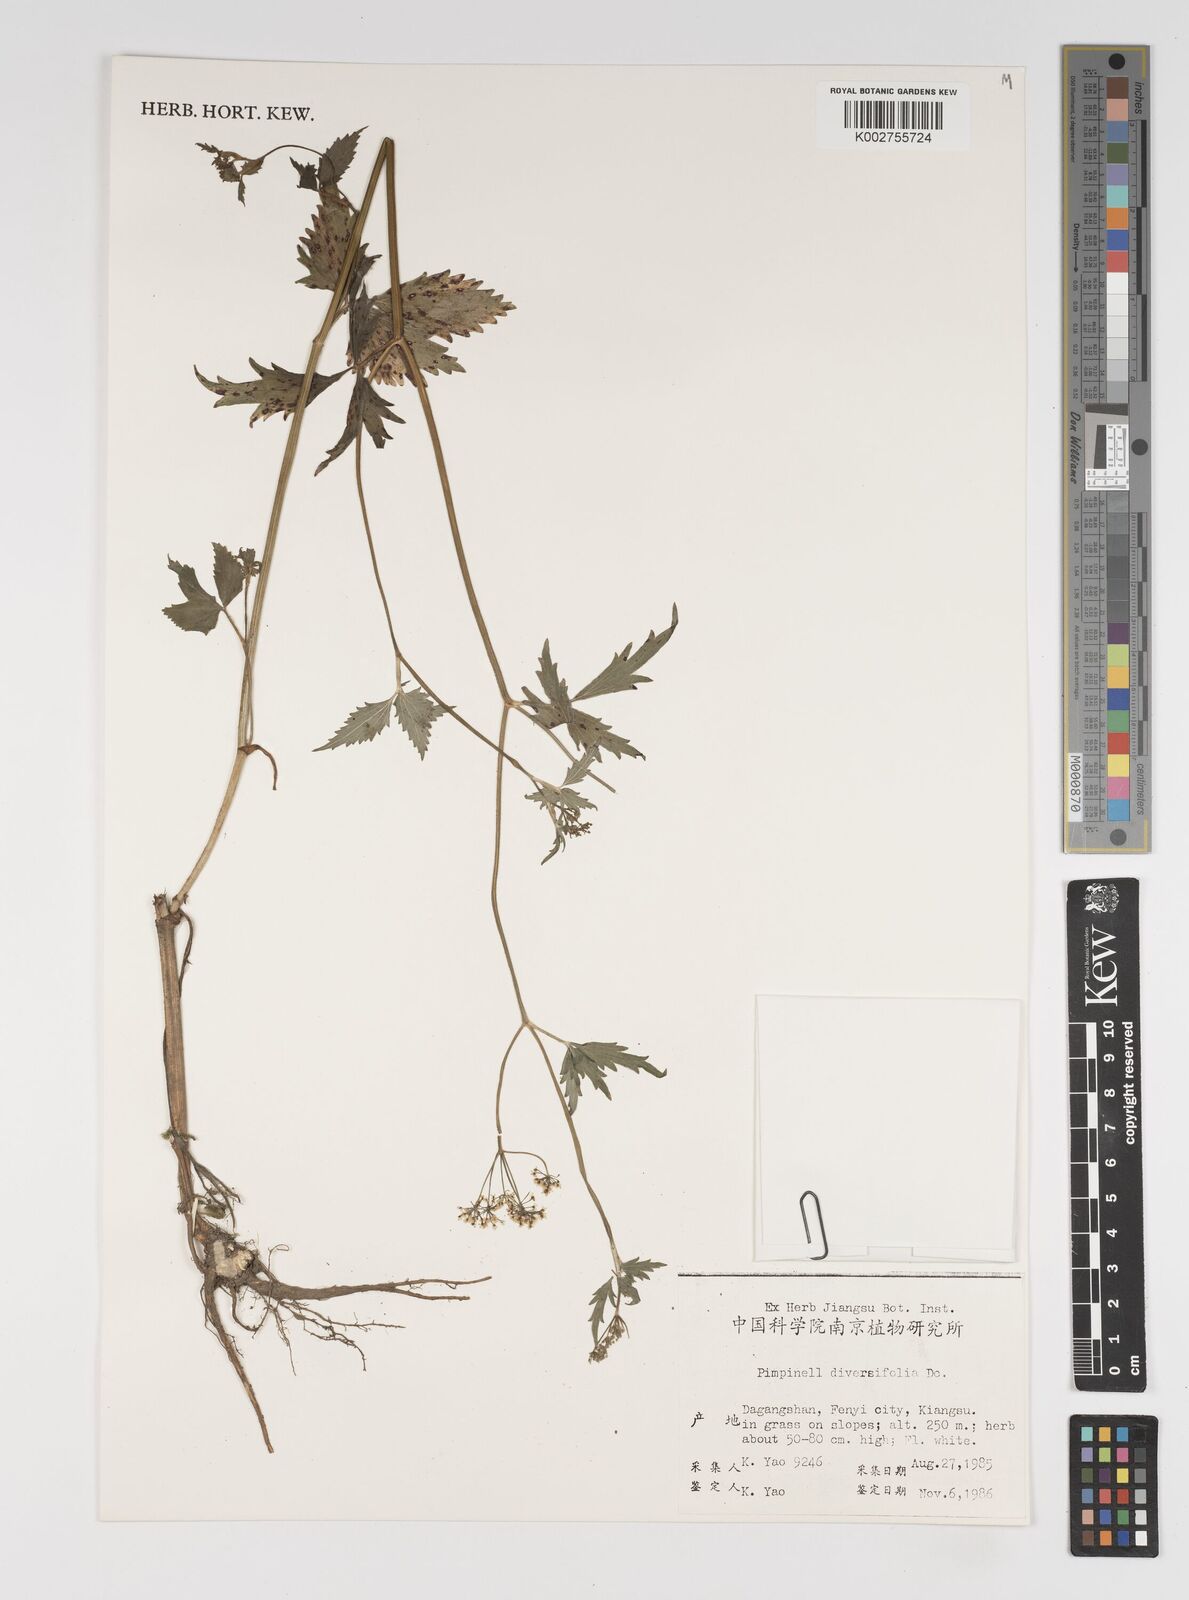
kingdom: Plantae
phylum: Tracheophyta
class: Magnoliopsida
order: Apiales
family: Apiaceae
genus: Pimpinella
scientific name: Pimpinella diversifolia
